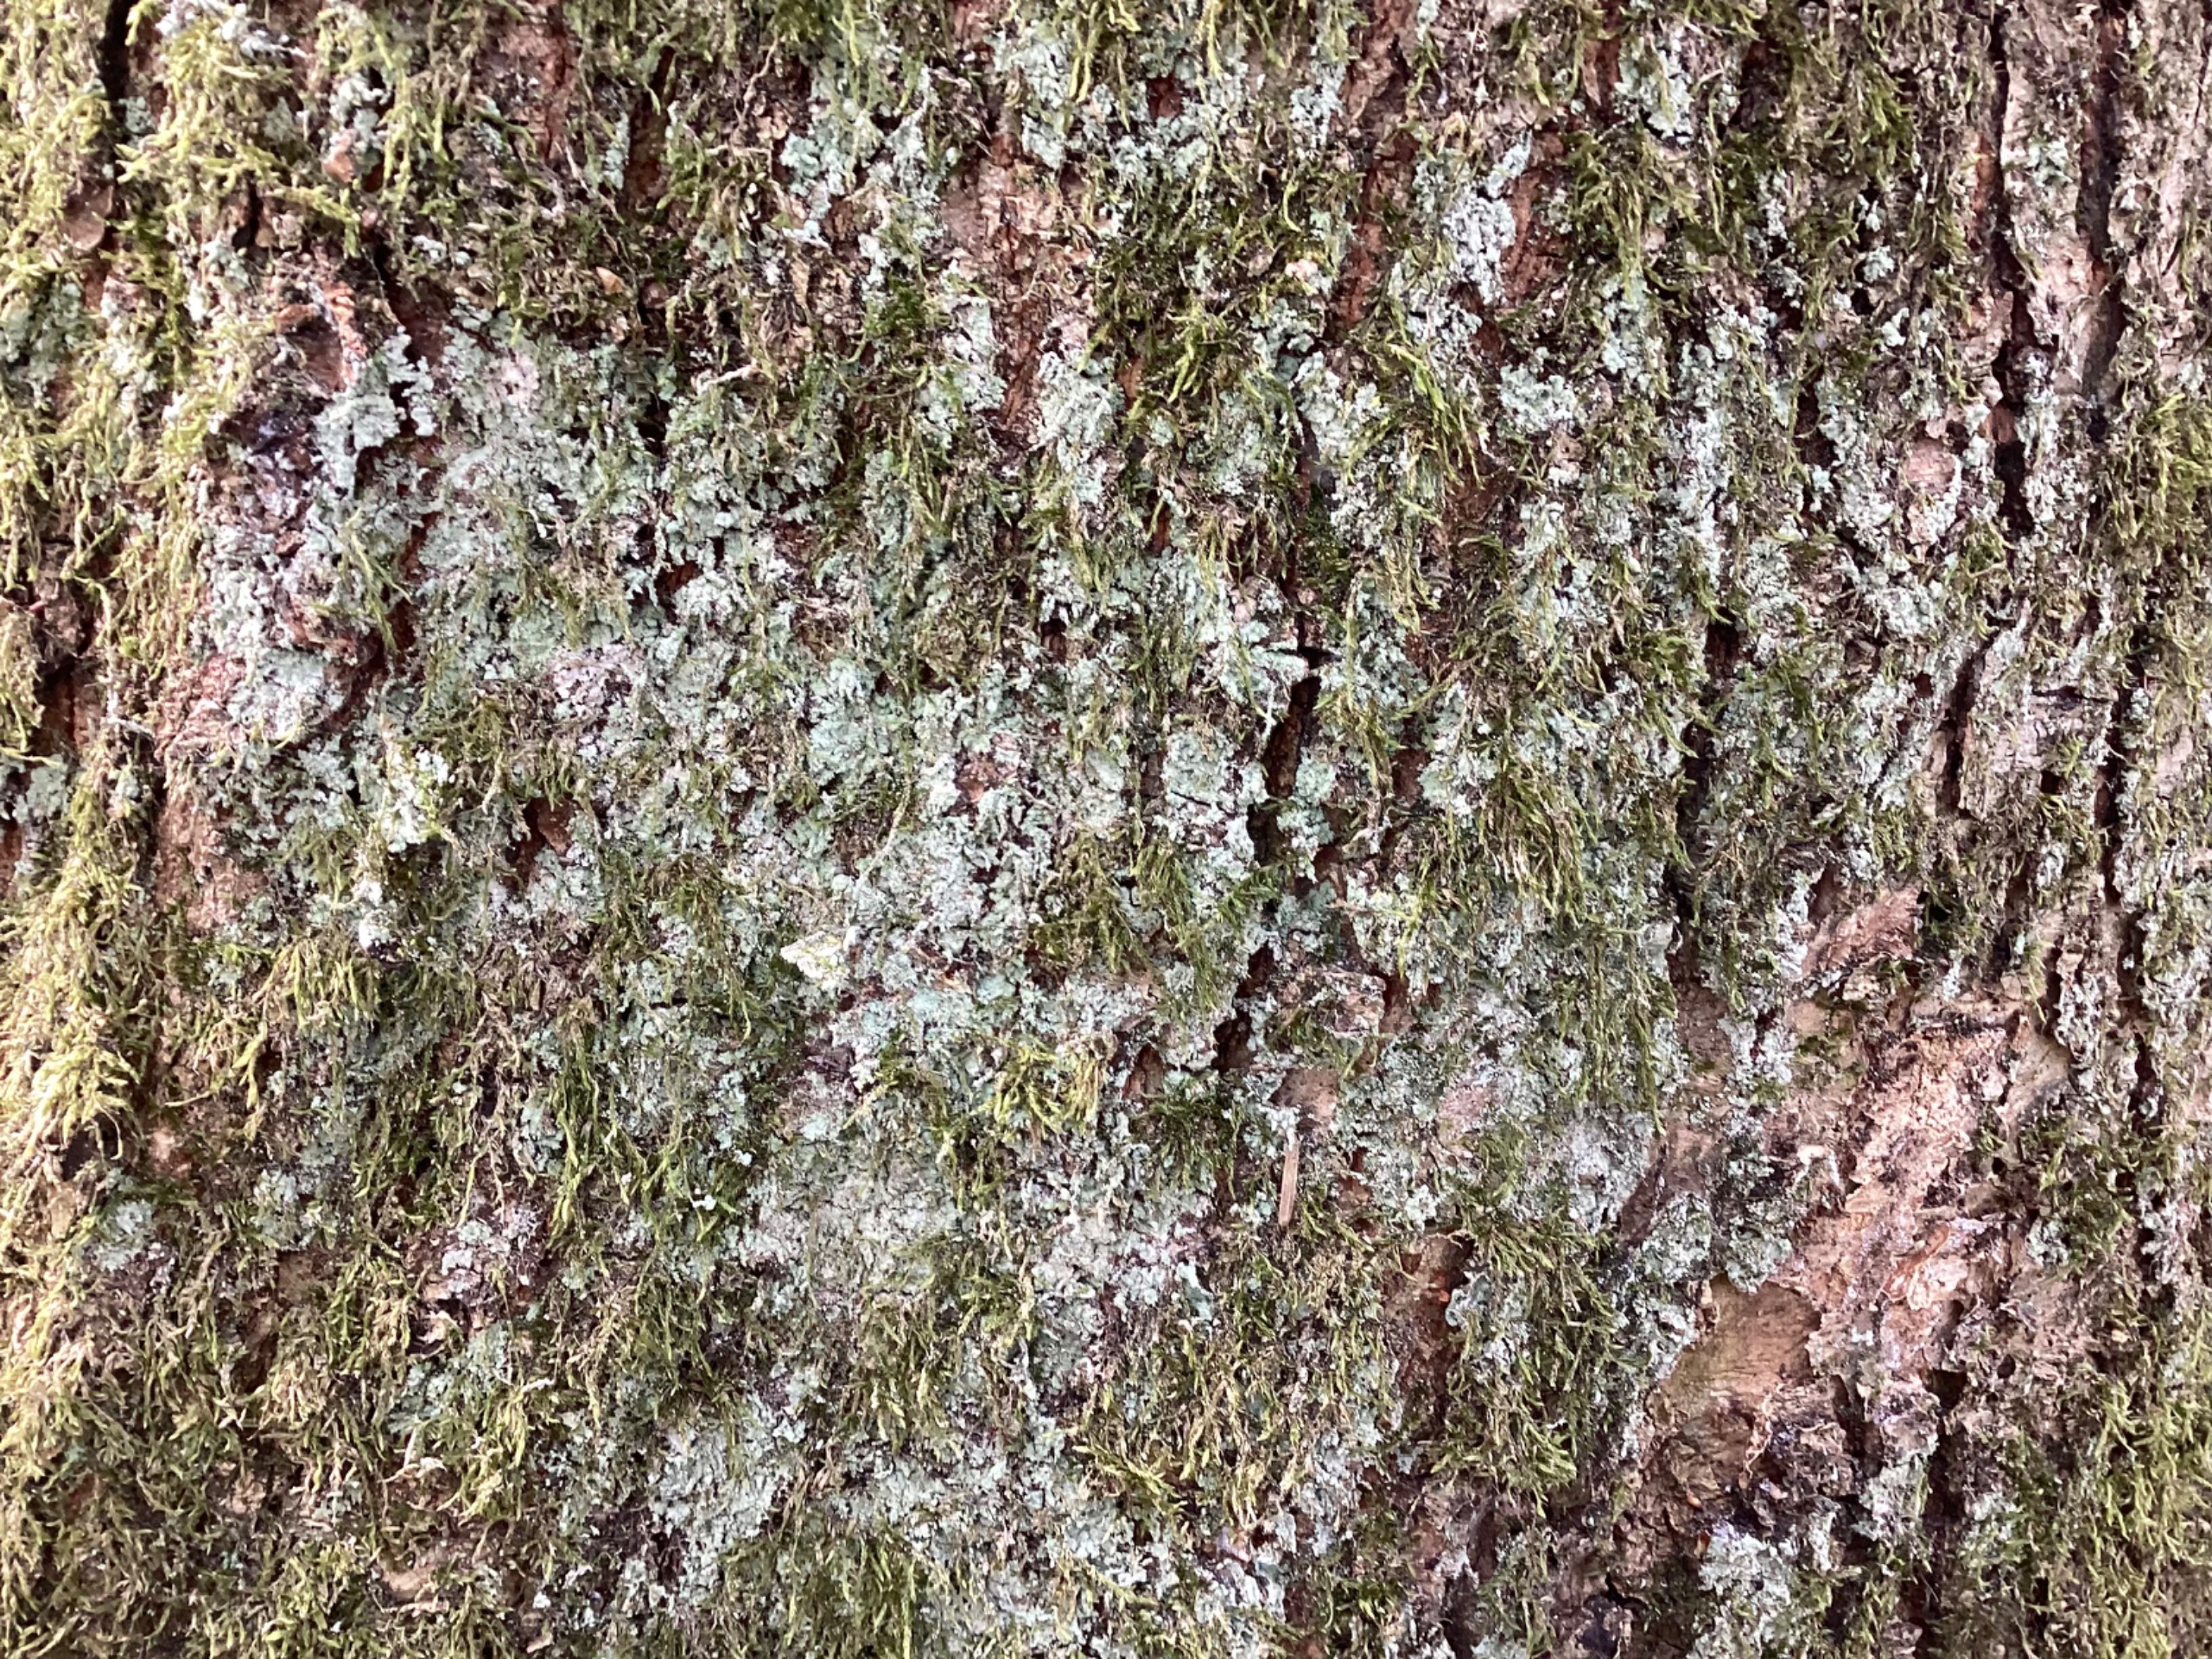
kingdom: Fungi
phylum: Ascomycota
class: Lecanoromycetes
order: Lecanorales
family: Stereocaulaceae
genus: Lepraria
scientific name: Lepraria
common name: Støvlav
